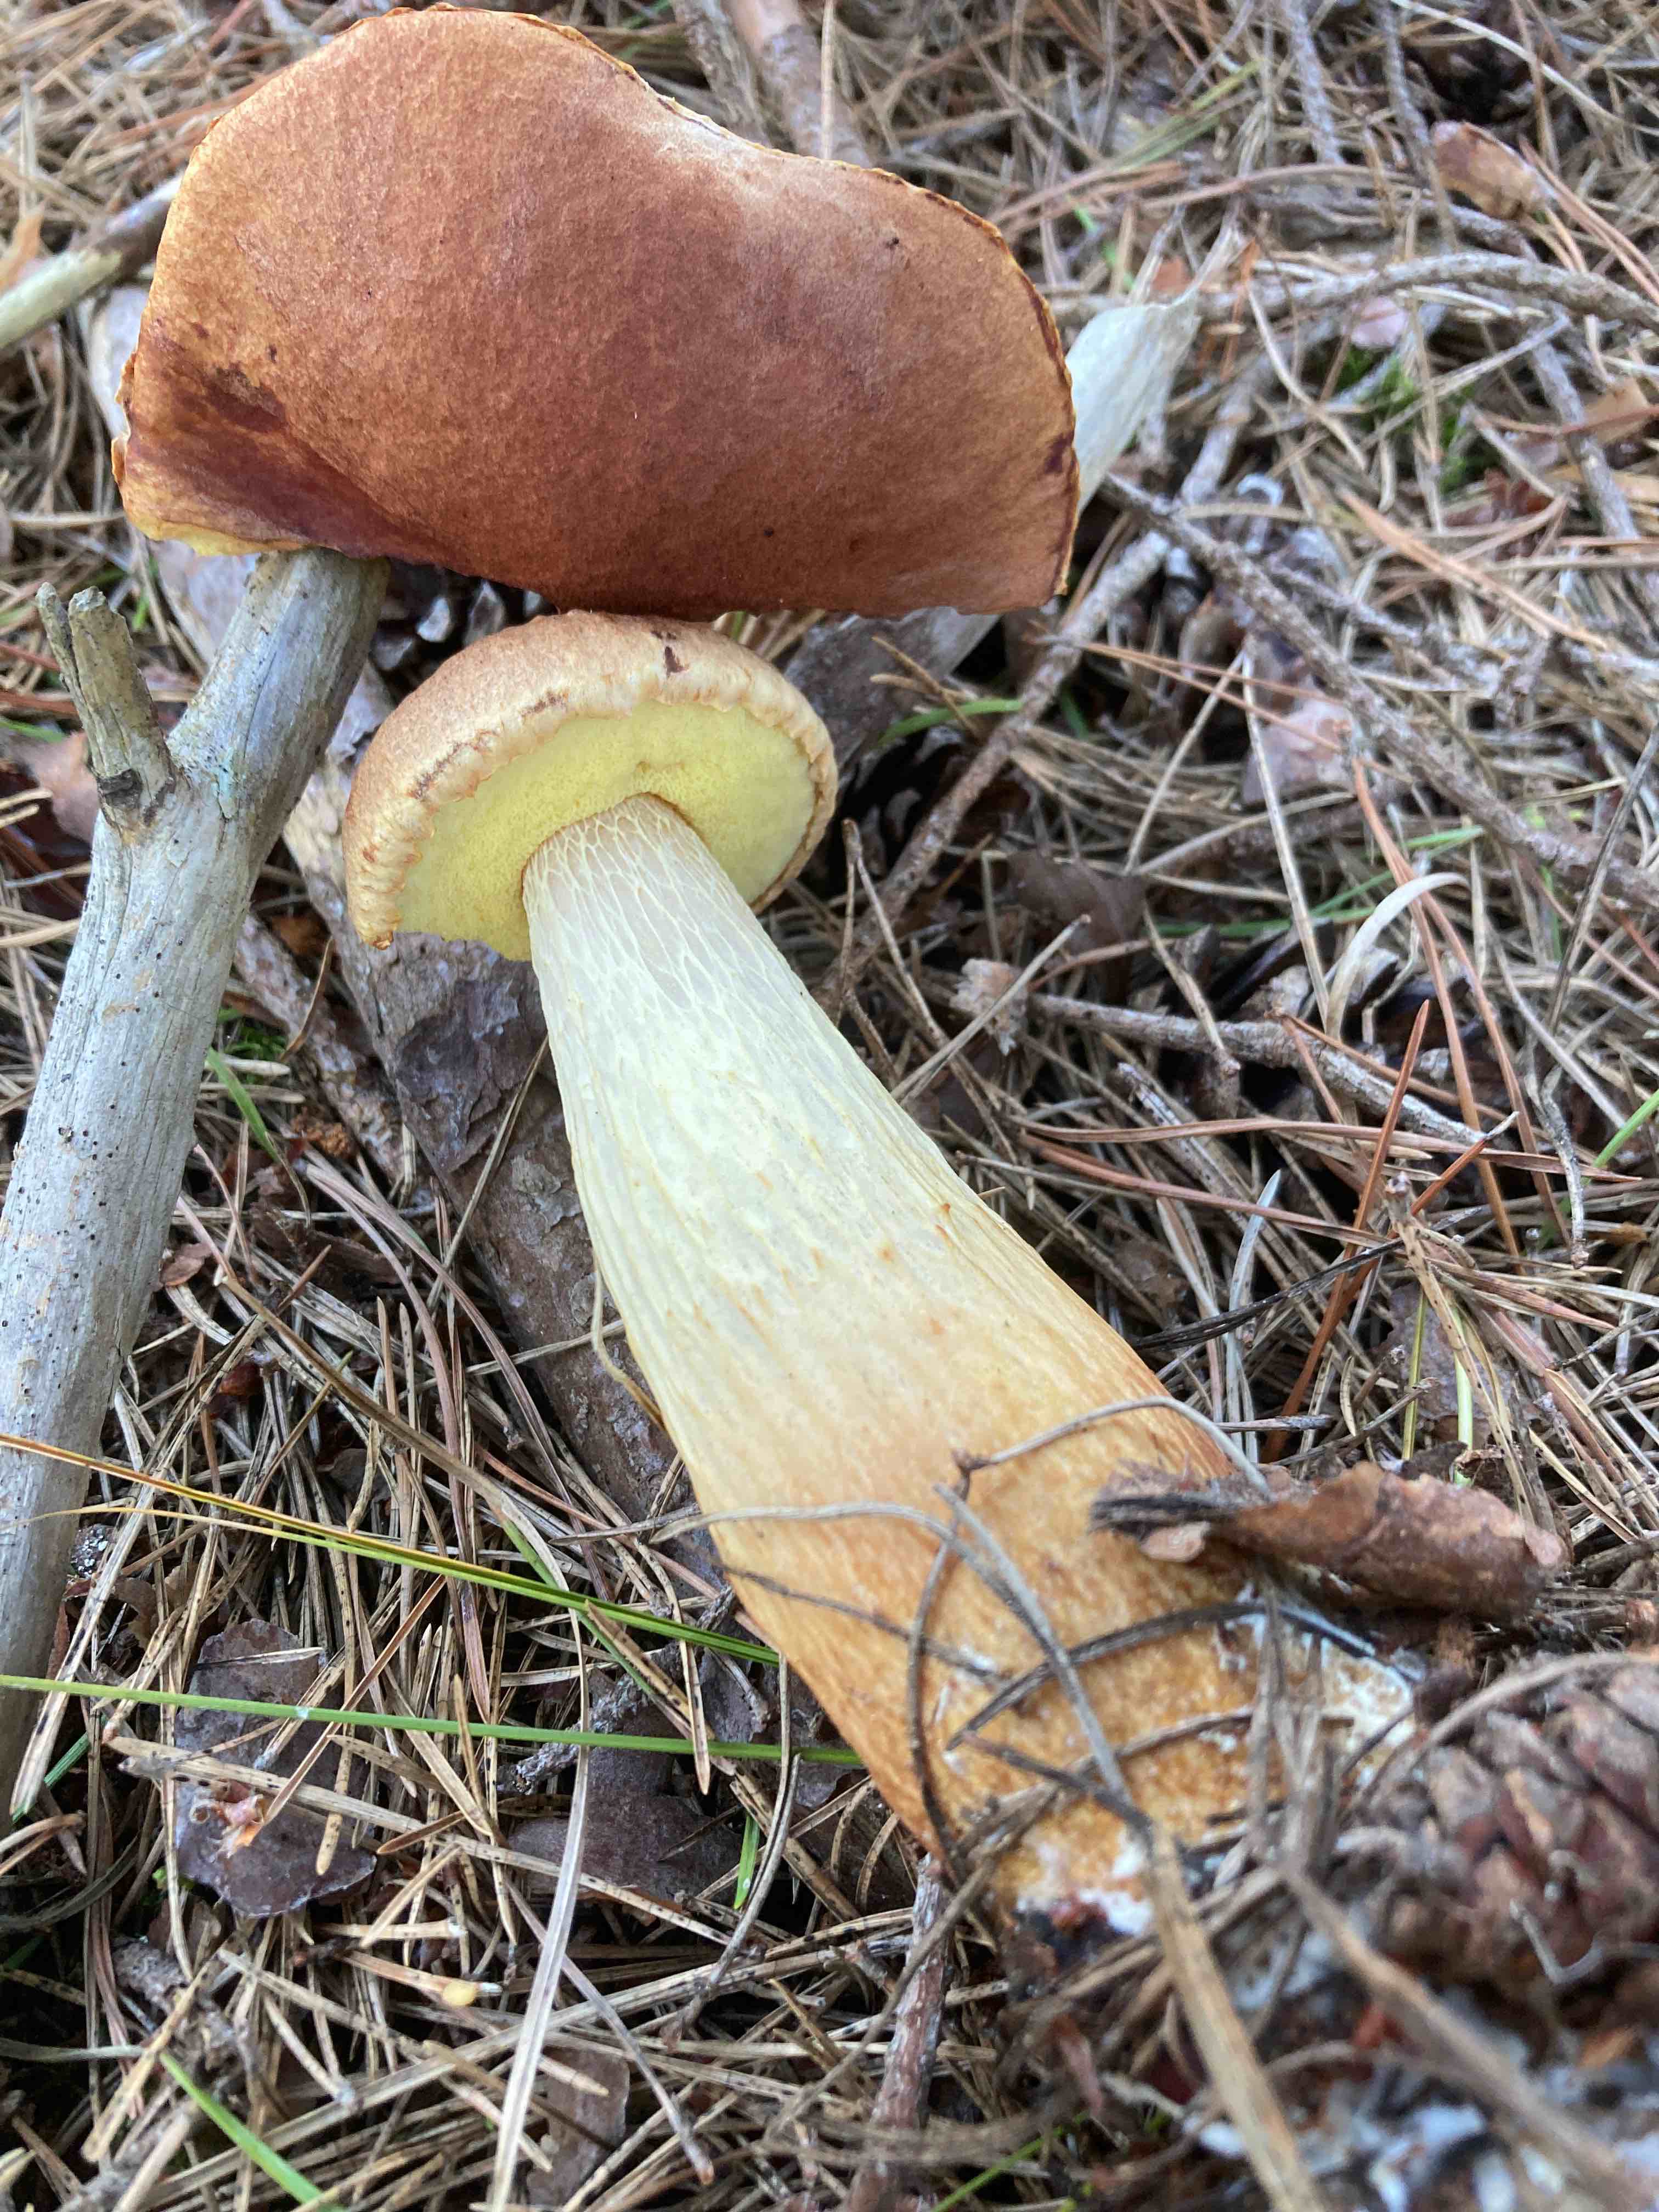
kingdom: Fungi
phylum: Basidiomycota
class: Agaricomycetes
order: Boletales
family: Boletaceae
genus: Aureoboletus
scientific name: Aureoboletus projectellus
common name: ribbestokket rørhat
